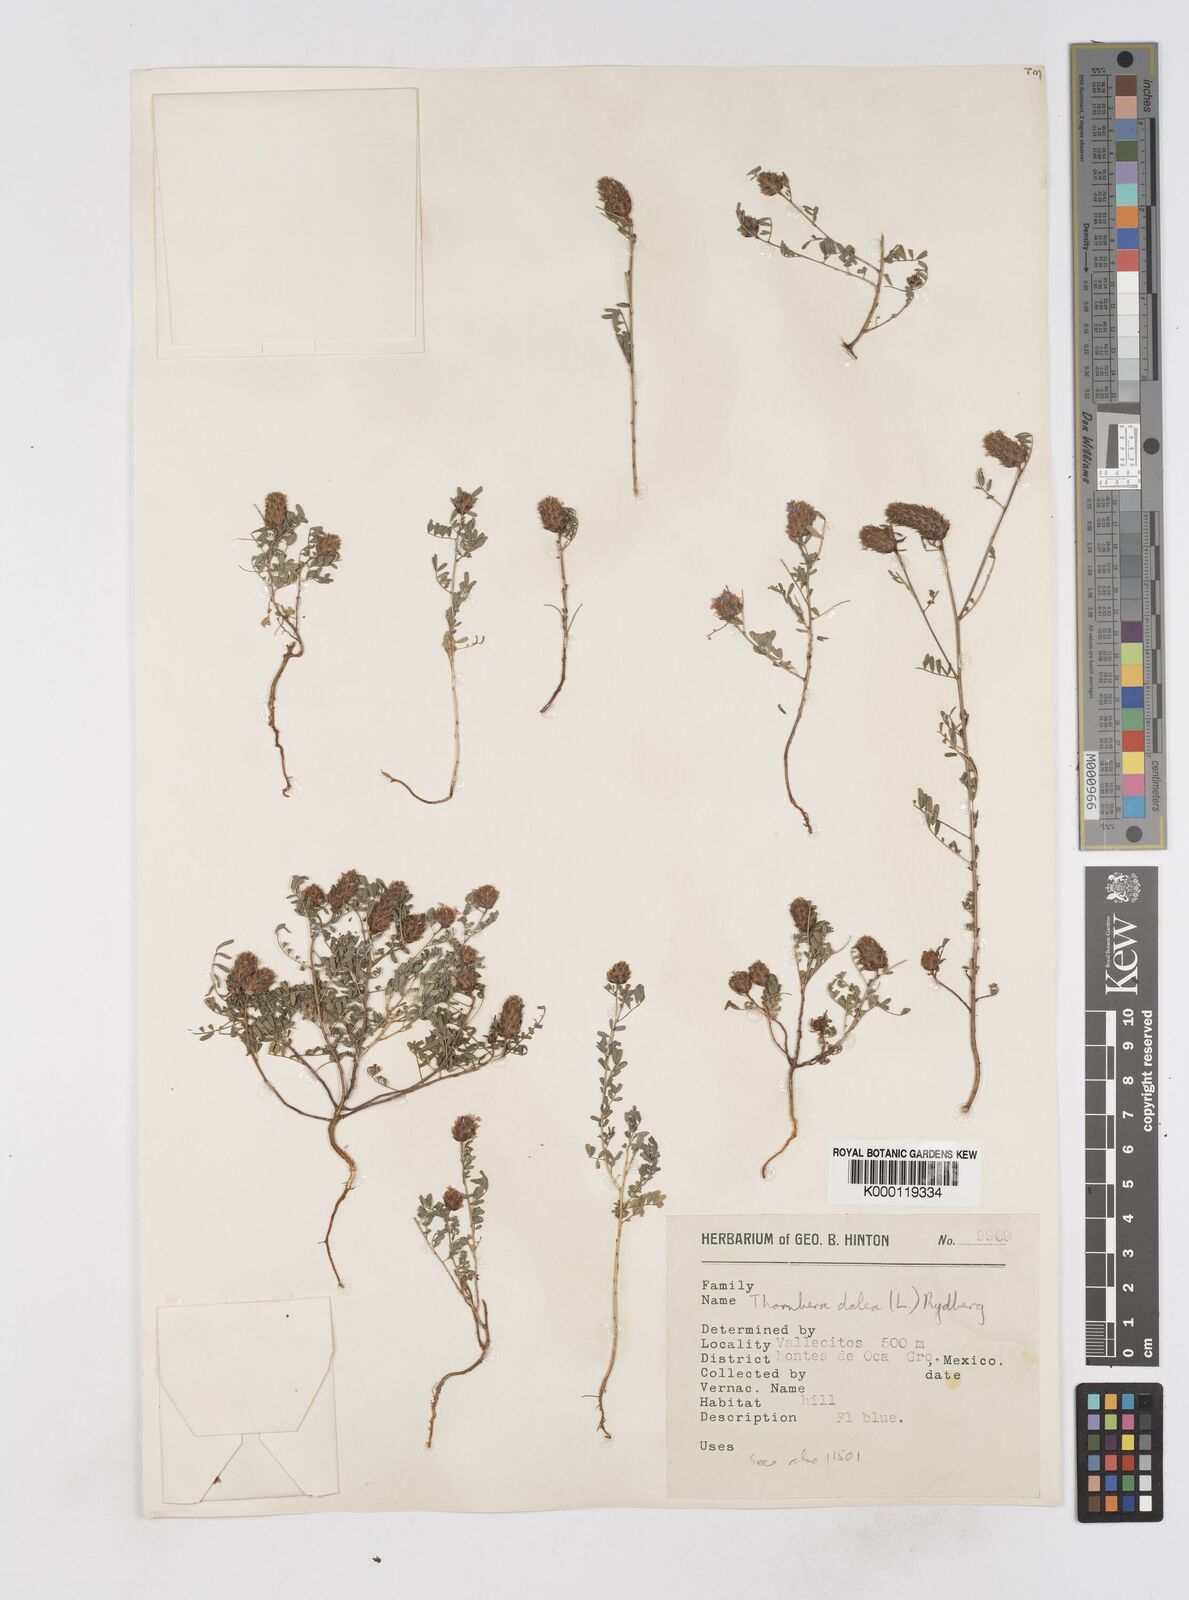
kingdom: Plantae
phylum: Tracheophyta
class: Magnoliopsida
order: Fabales
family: Fabaceae
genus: Dalea
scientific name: Dalea cliffortiana
